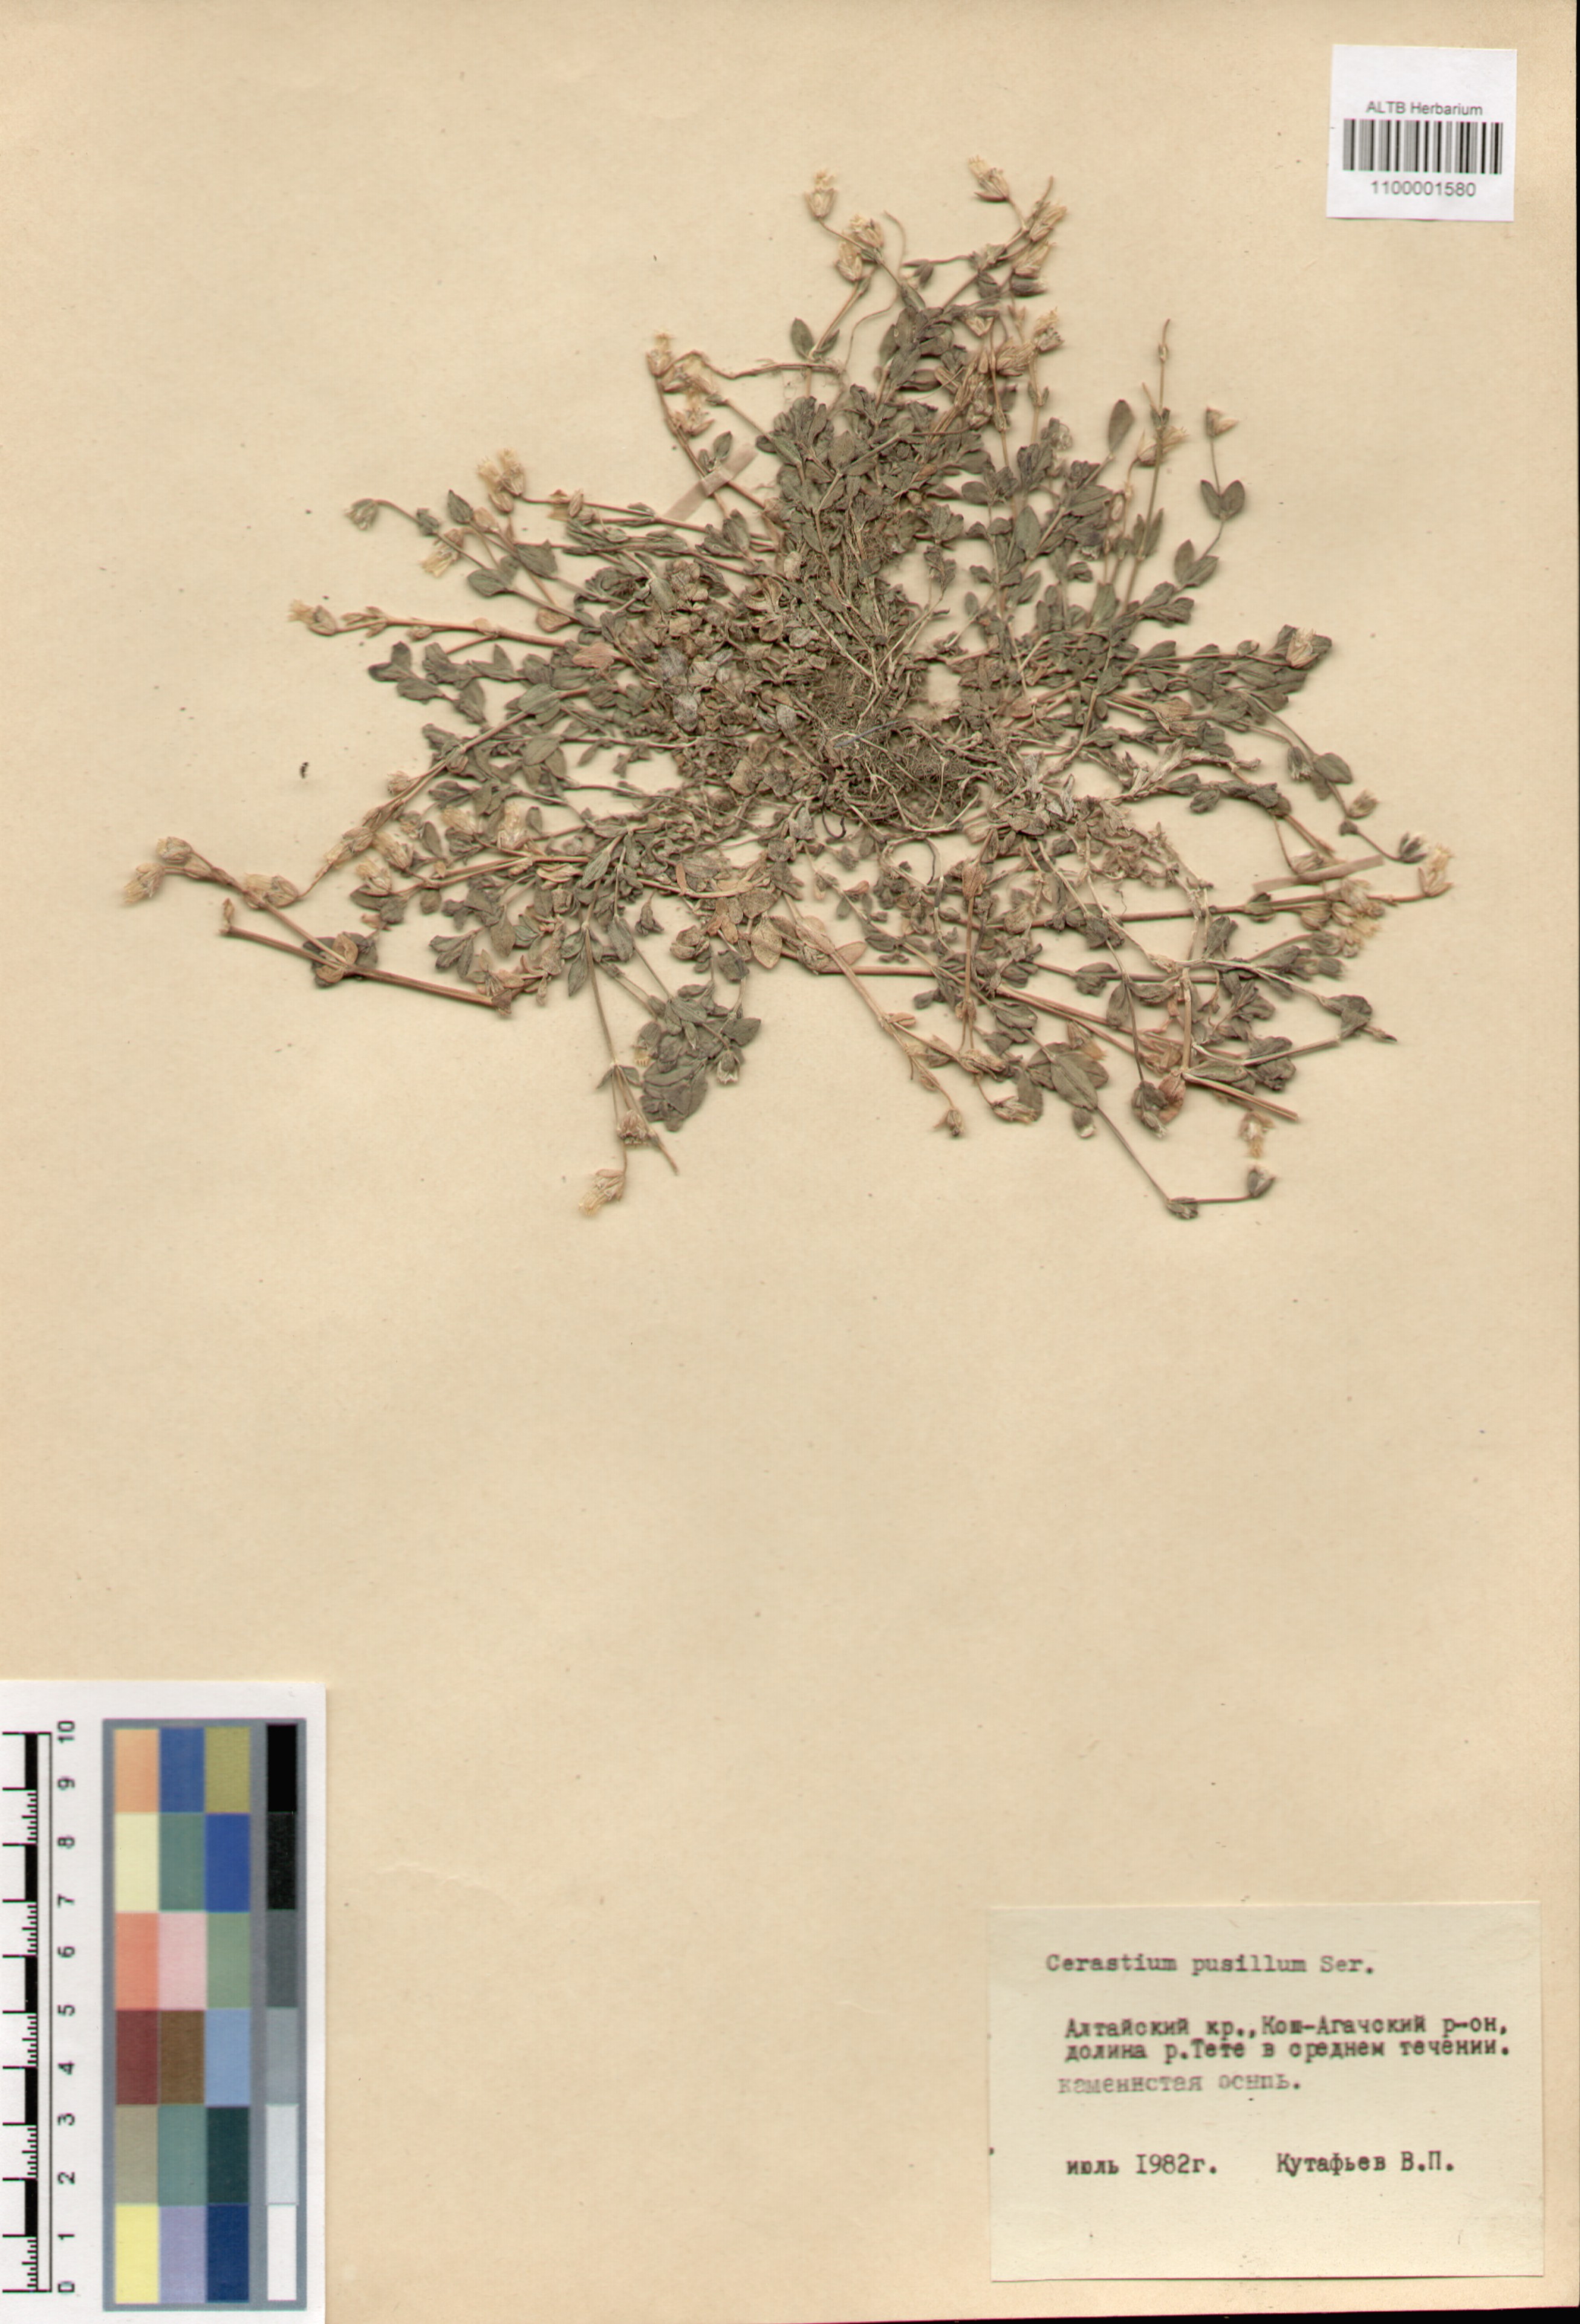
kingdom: Plantae
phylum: Tracheophyta
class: Magnoliopsida
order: Caryophyllales
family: Caryophyllaceae
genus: Cerastium
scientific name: Cerastium pusillum
